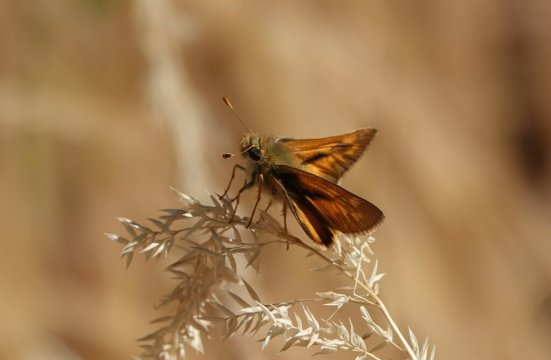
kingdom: Animalia
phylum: Arthropoda
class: Insecta
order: Lepidoptera
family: Hesperiidae
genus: Ochlodes
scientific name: Ochlodes sylvanoides
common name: Woodland Skipper
